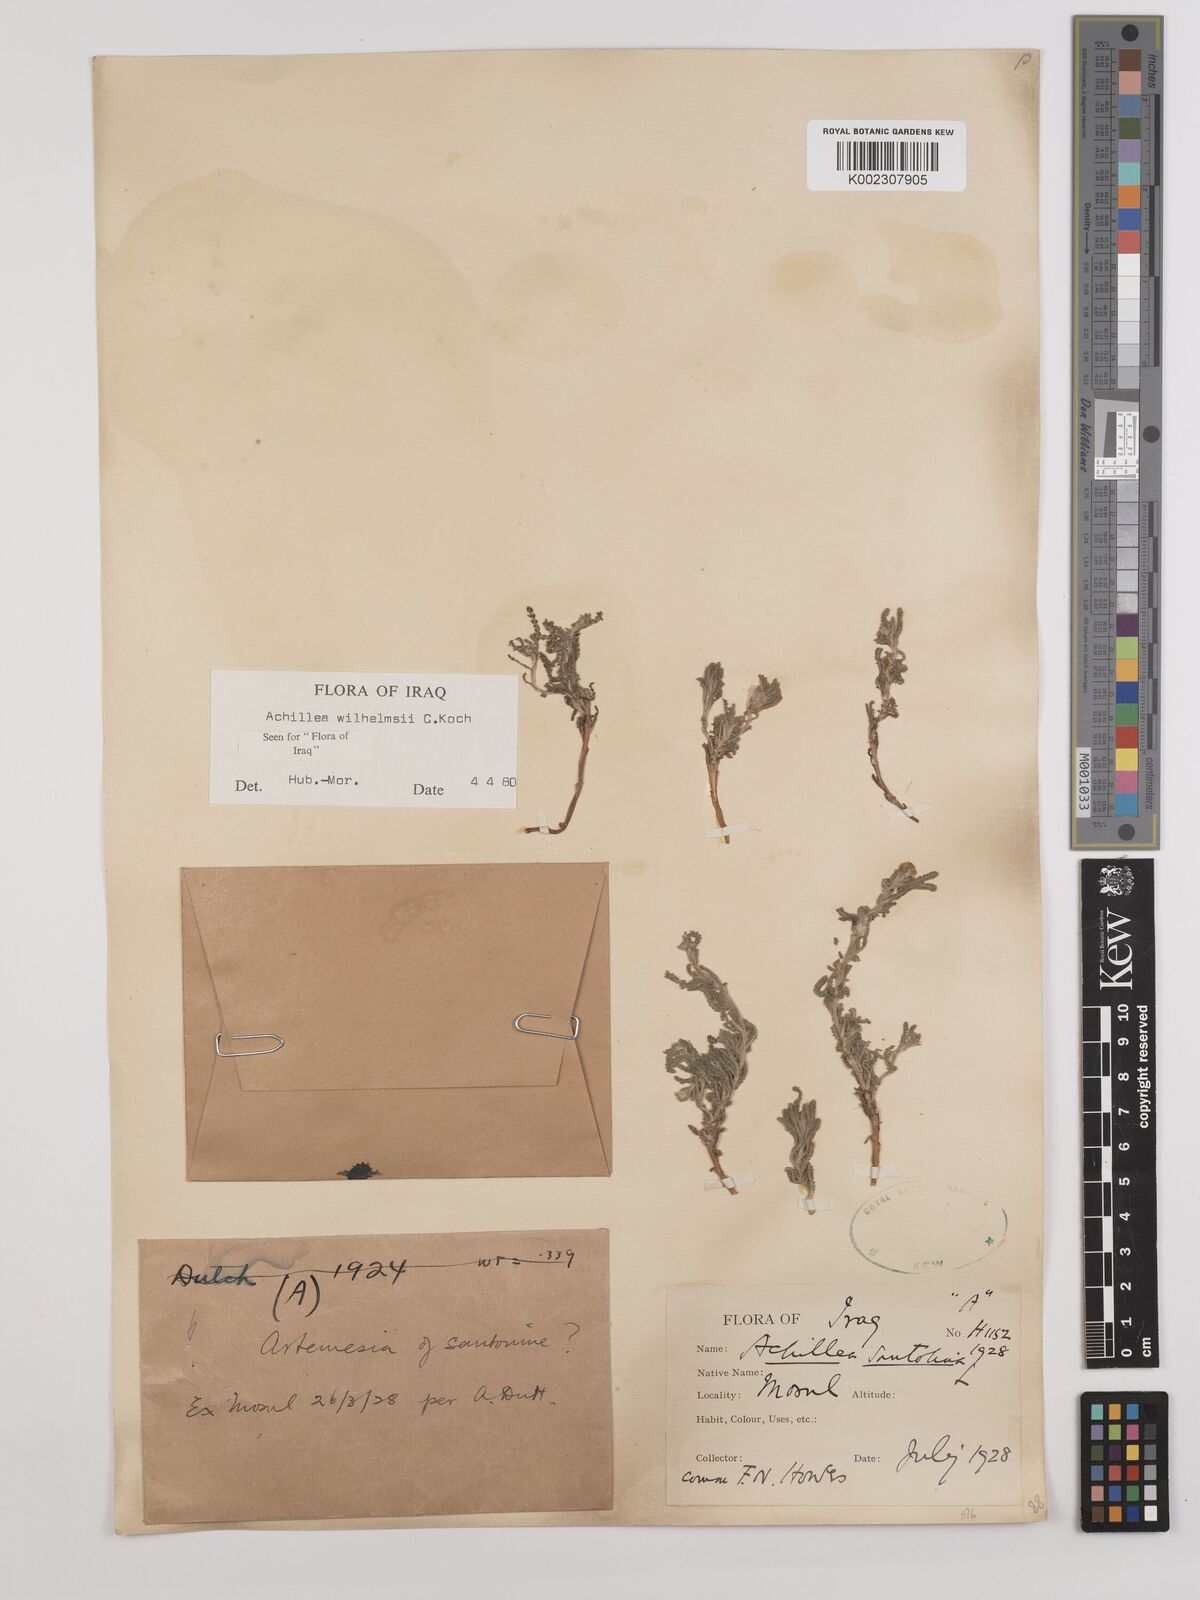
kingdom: Plantae
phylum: Tracheophyta
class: Magnoliopsida
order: Asterales
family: Asteraceae
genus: Achillea
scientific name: Achillea wilhelmsii
